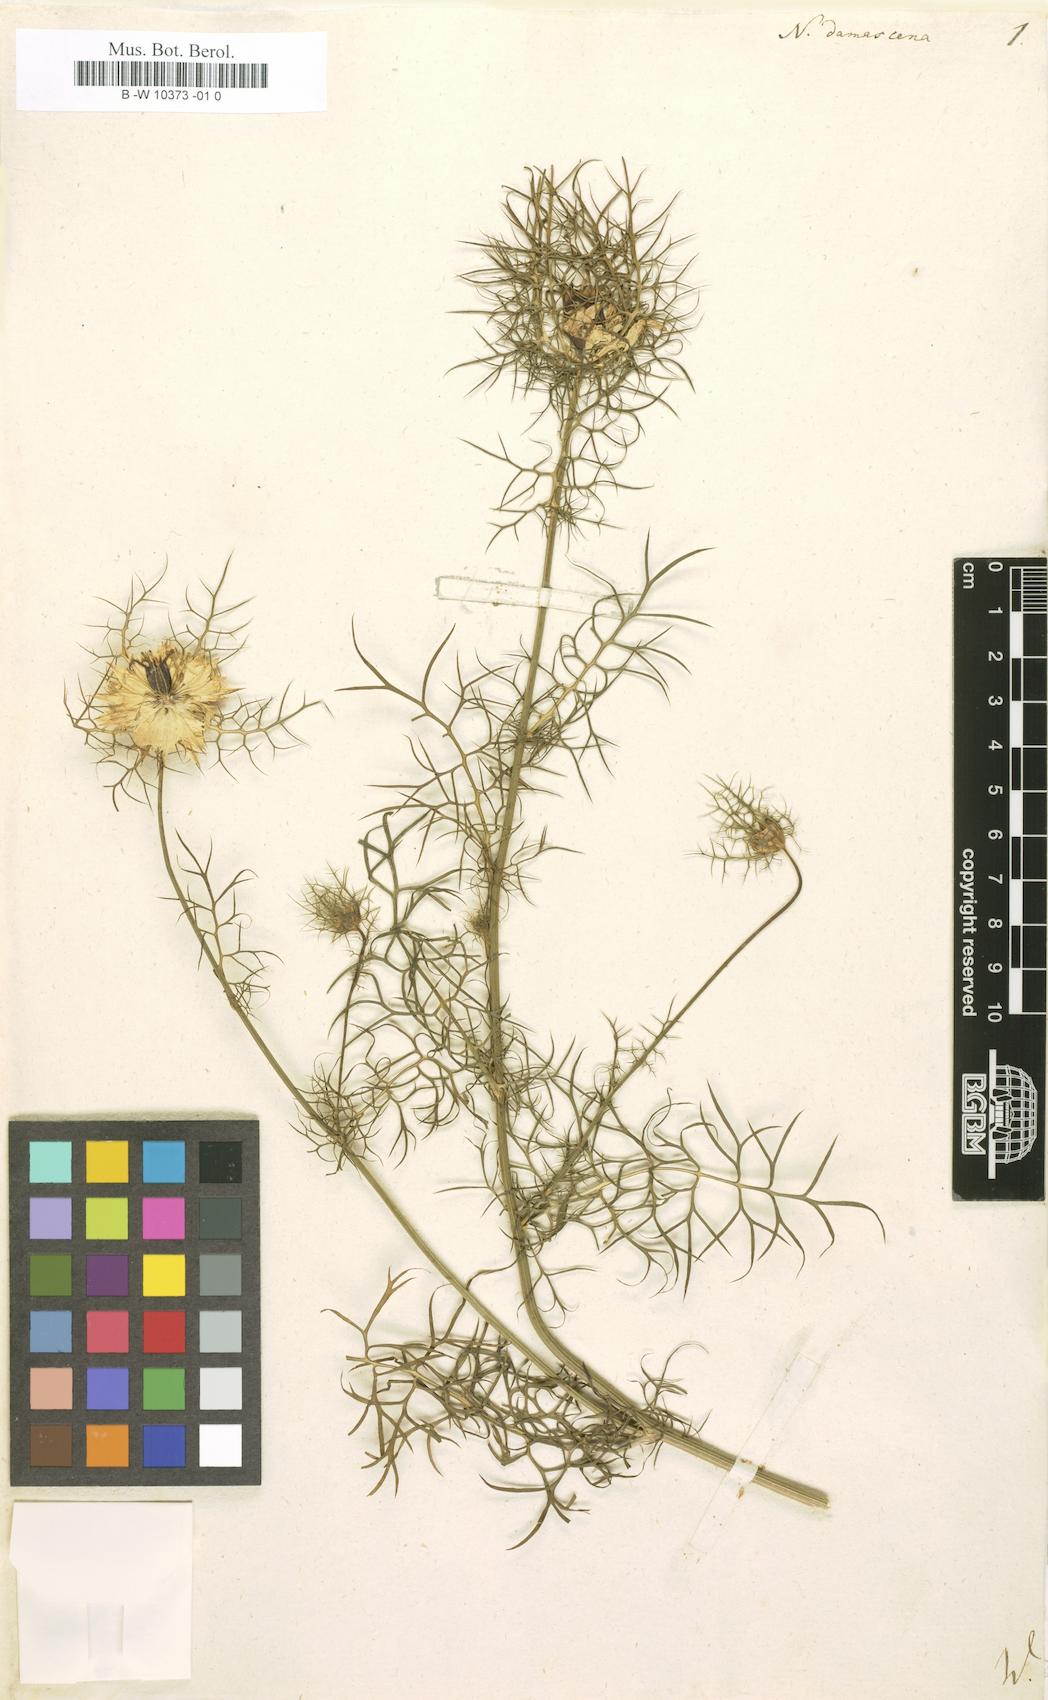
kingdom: Plantae
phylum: Tracheophyta
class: Magnoliopsida
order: Ranunculales
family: Ranunculaceae
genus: Nigella
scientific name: Nigella damascena
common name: Love-in-a-mist
